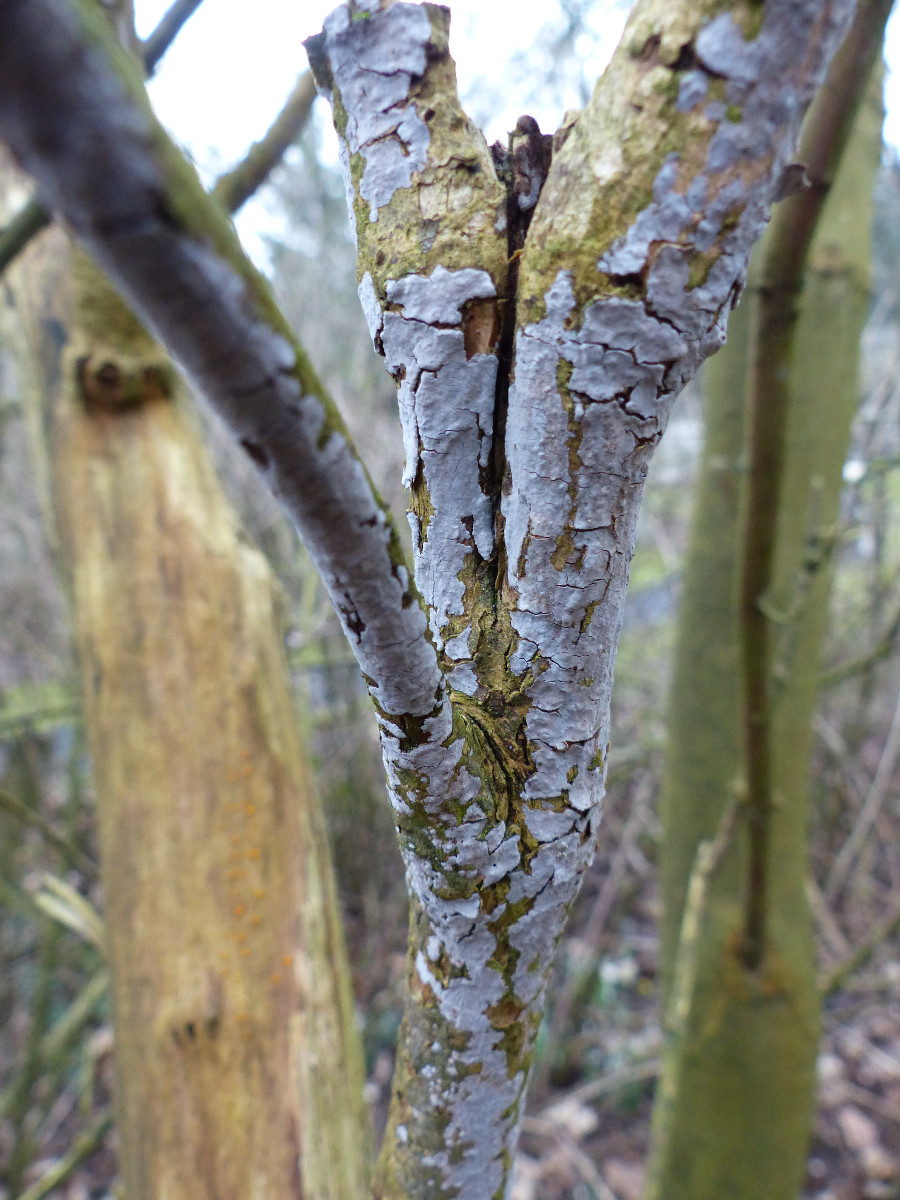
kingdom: Fungi
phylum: Basidiomycota
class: Agaricomycetes
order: Russulales
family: Peniophoraceae
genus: Peniophora
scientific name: Peniophora lycii
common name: grynet voksskind
